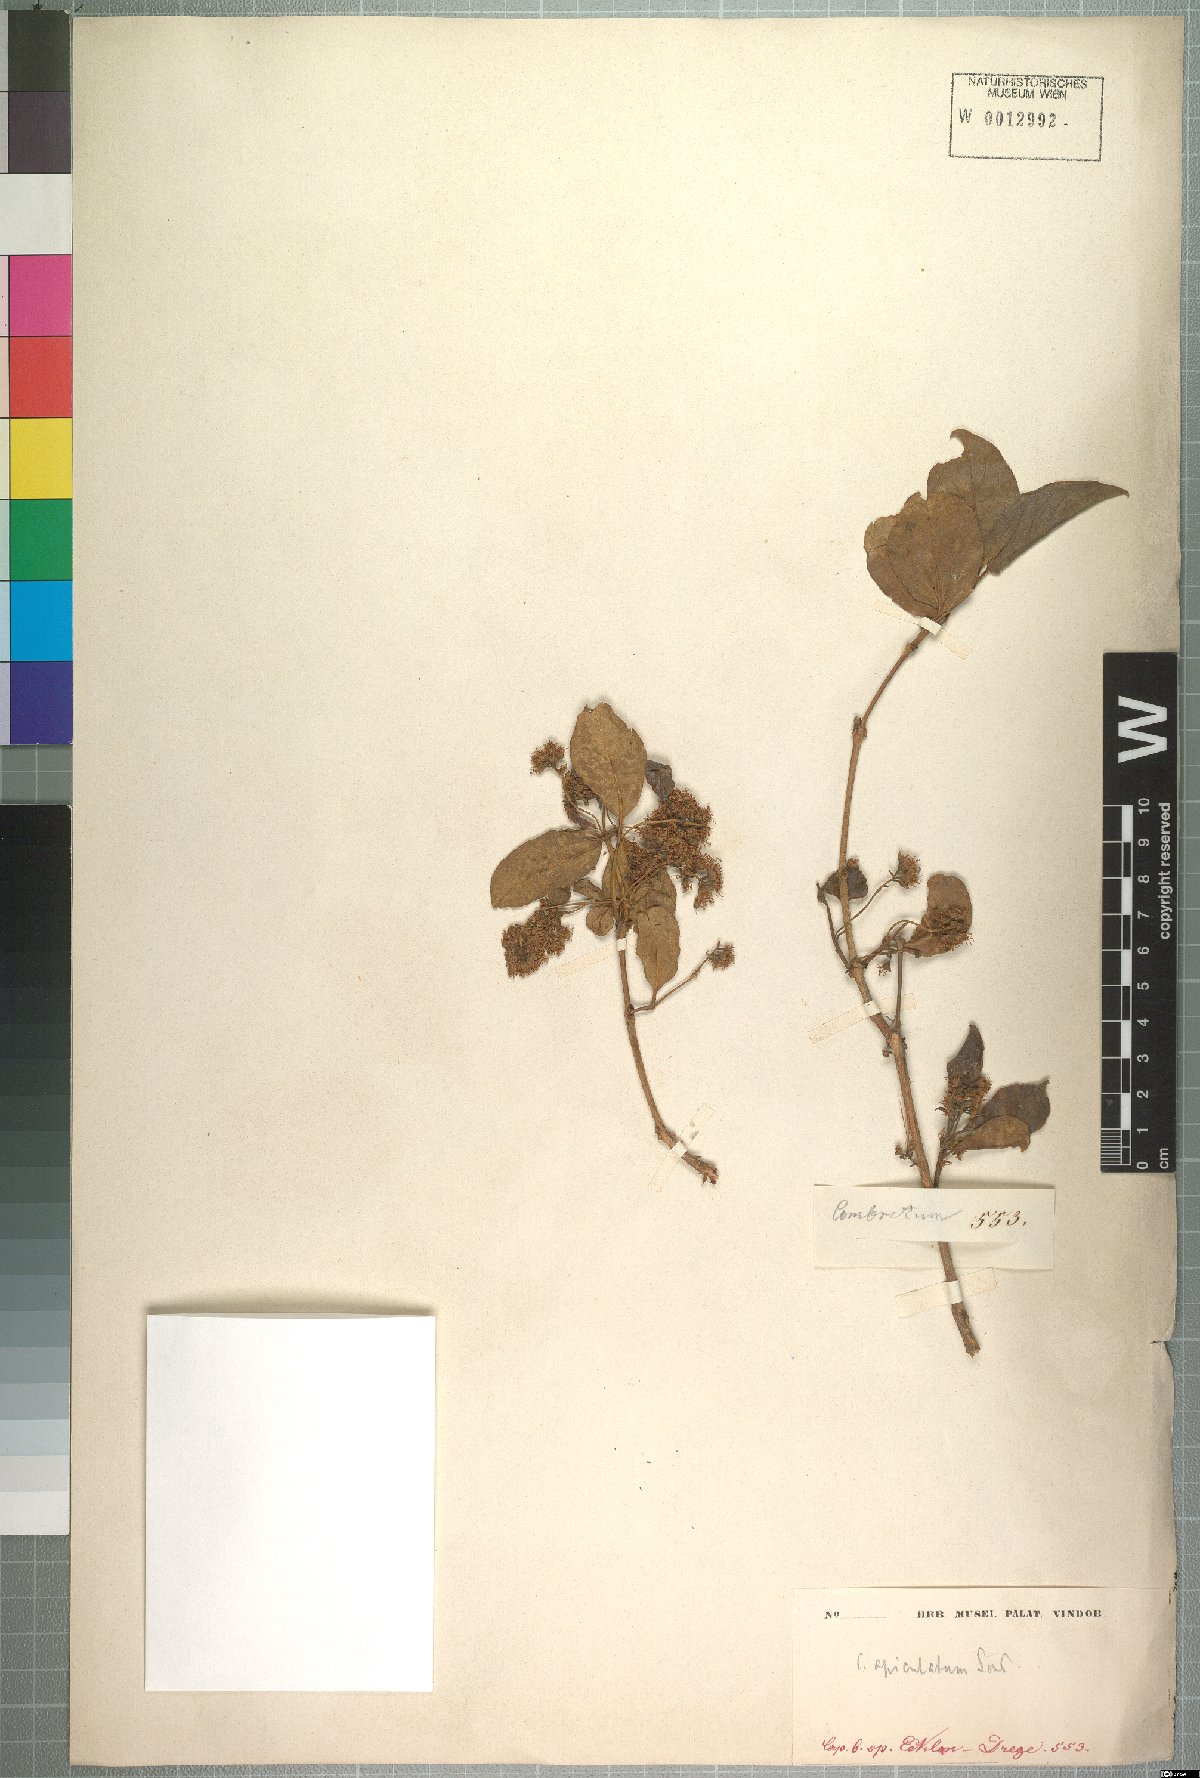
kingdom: Plantae
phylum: Tracheophyta
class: Magnoliopsida
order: Myrtales
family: Combretaceae
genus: Combretum
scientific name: Combretum apiculatum
